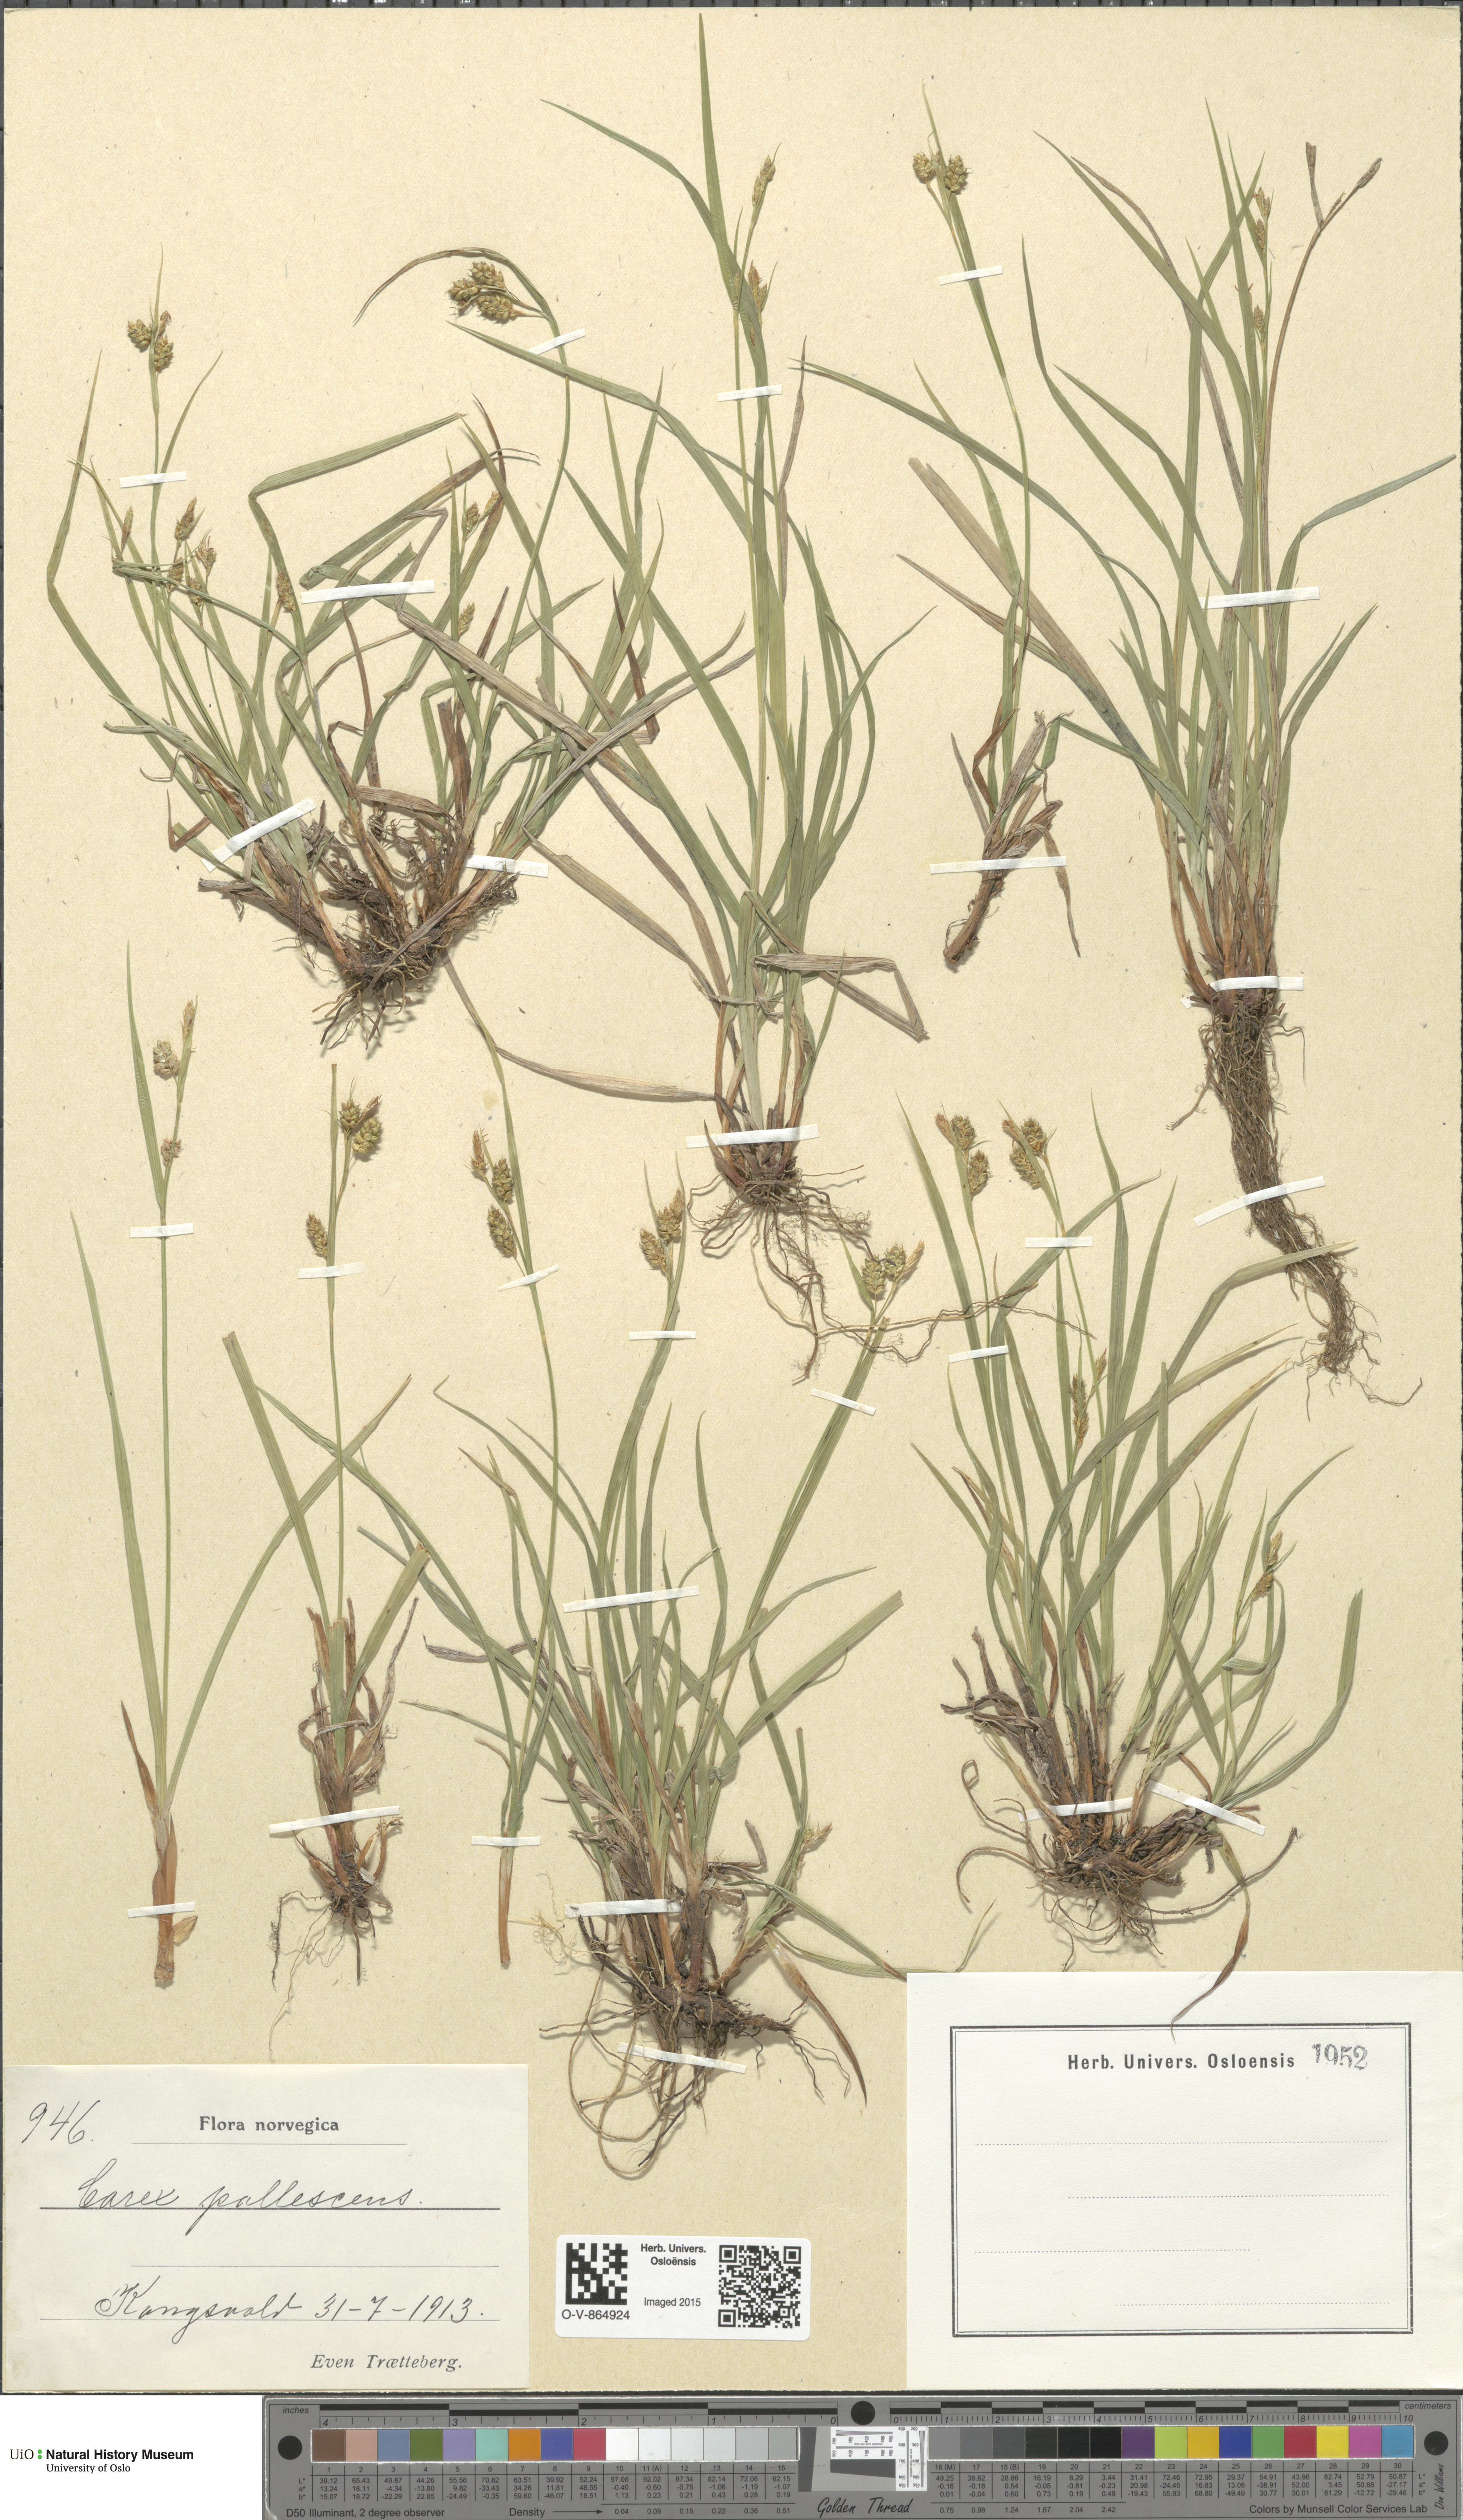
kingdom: Plantae
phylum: Tracheophyta
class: Liliopsida
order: Poales
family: Cyperaceae
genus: Carex
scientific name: Carex pallescens
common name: Pale sedge
